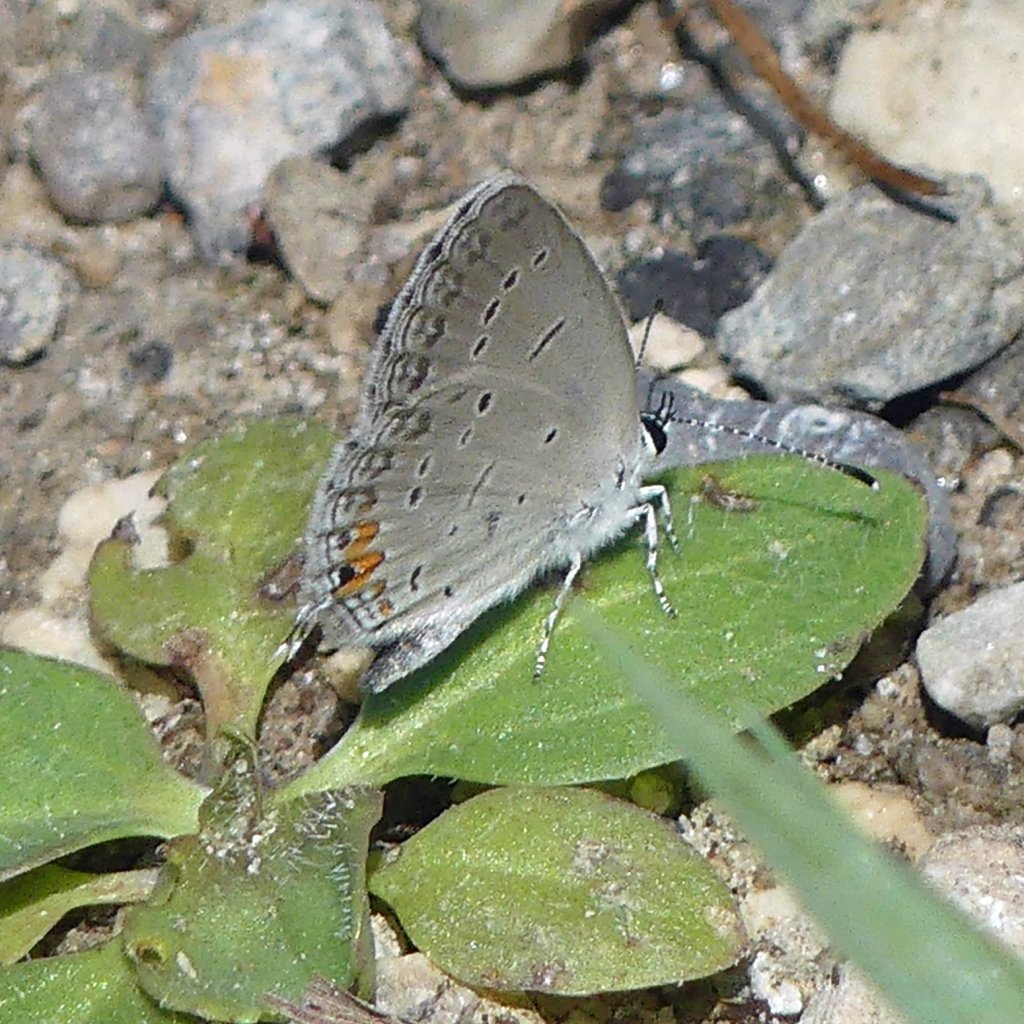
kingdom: Animalia
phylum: Arthropoda
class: Insecta
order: Lepidoptera
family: Lycaenidae
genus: Elkalyce
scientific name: Elkalyce comyntas
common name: Eastern Tailed-Blue
